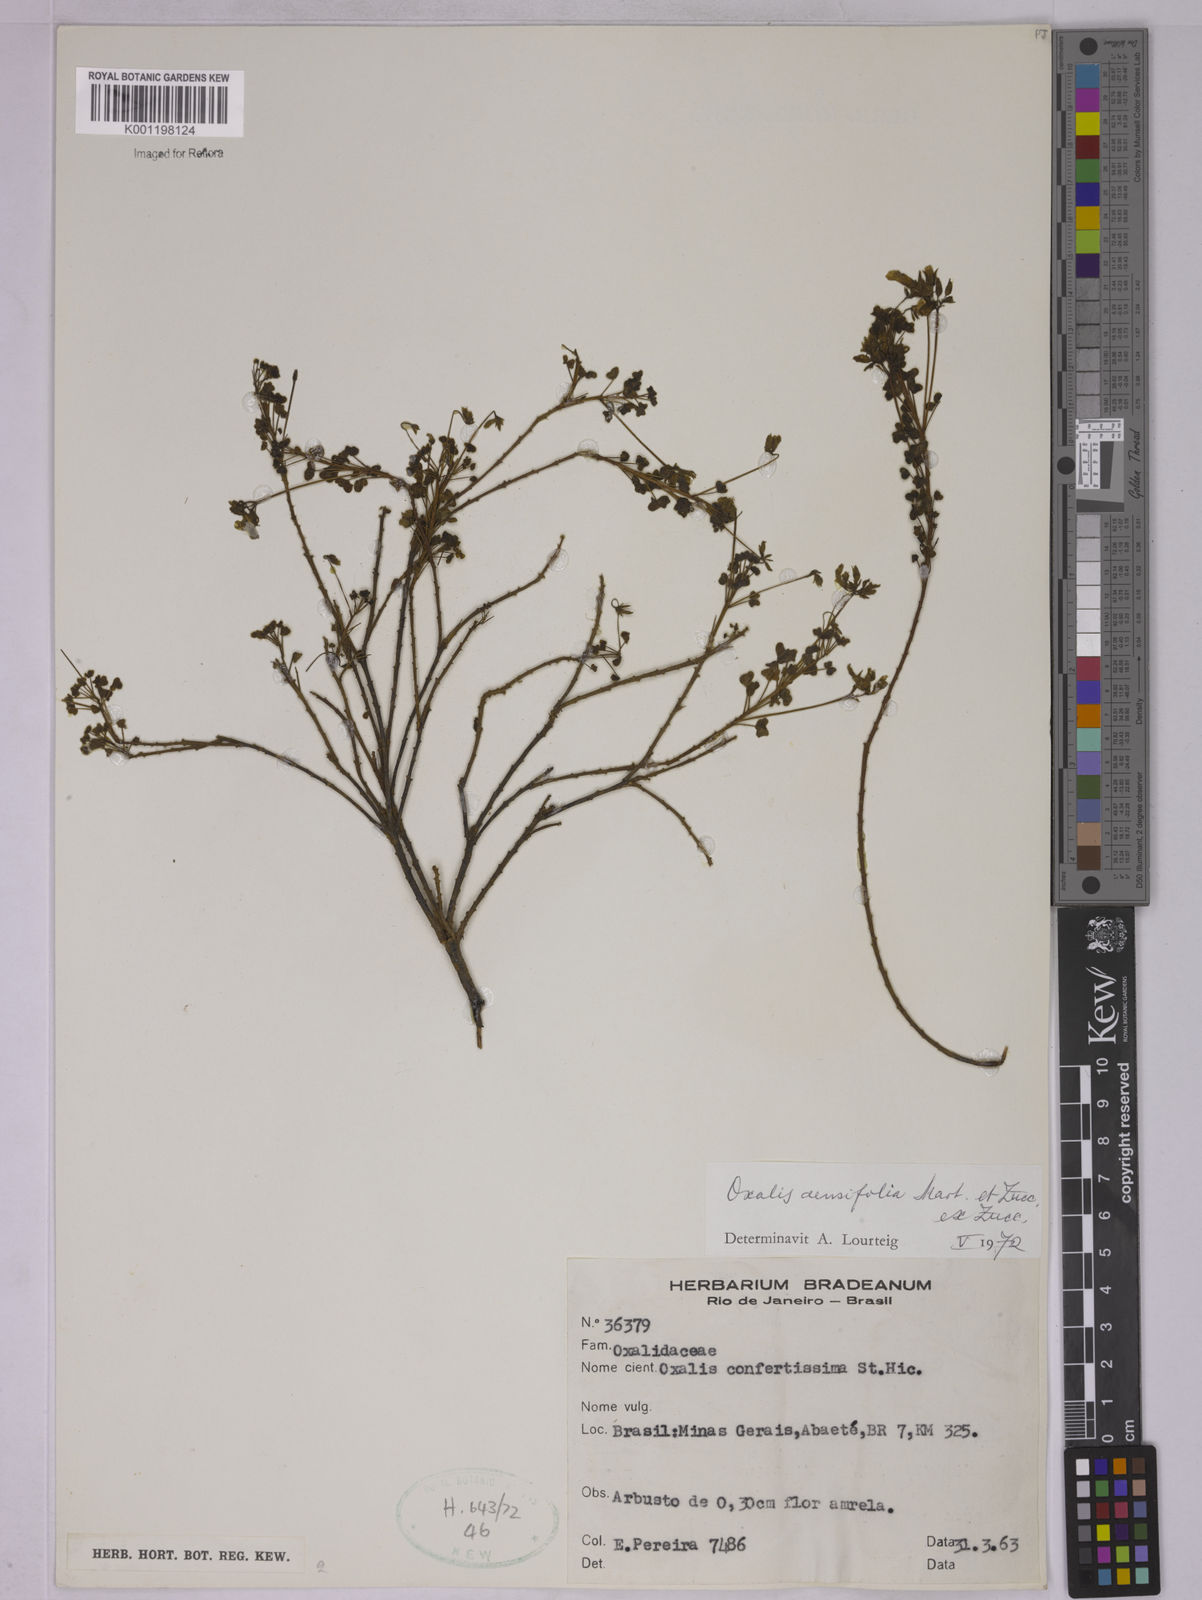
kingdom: Plantae
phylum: Tracheophyta
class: Magnoliopsida
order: Oxalidales
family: Oxalidaceae
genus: Oxalis
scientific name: Oxalis densifolia
